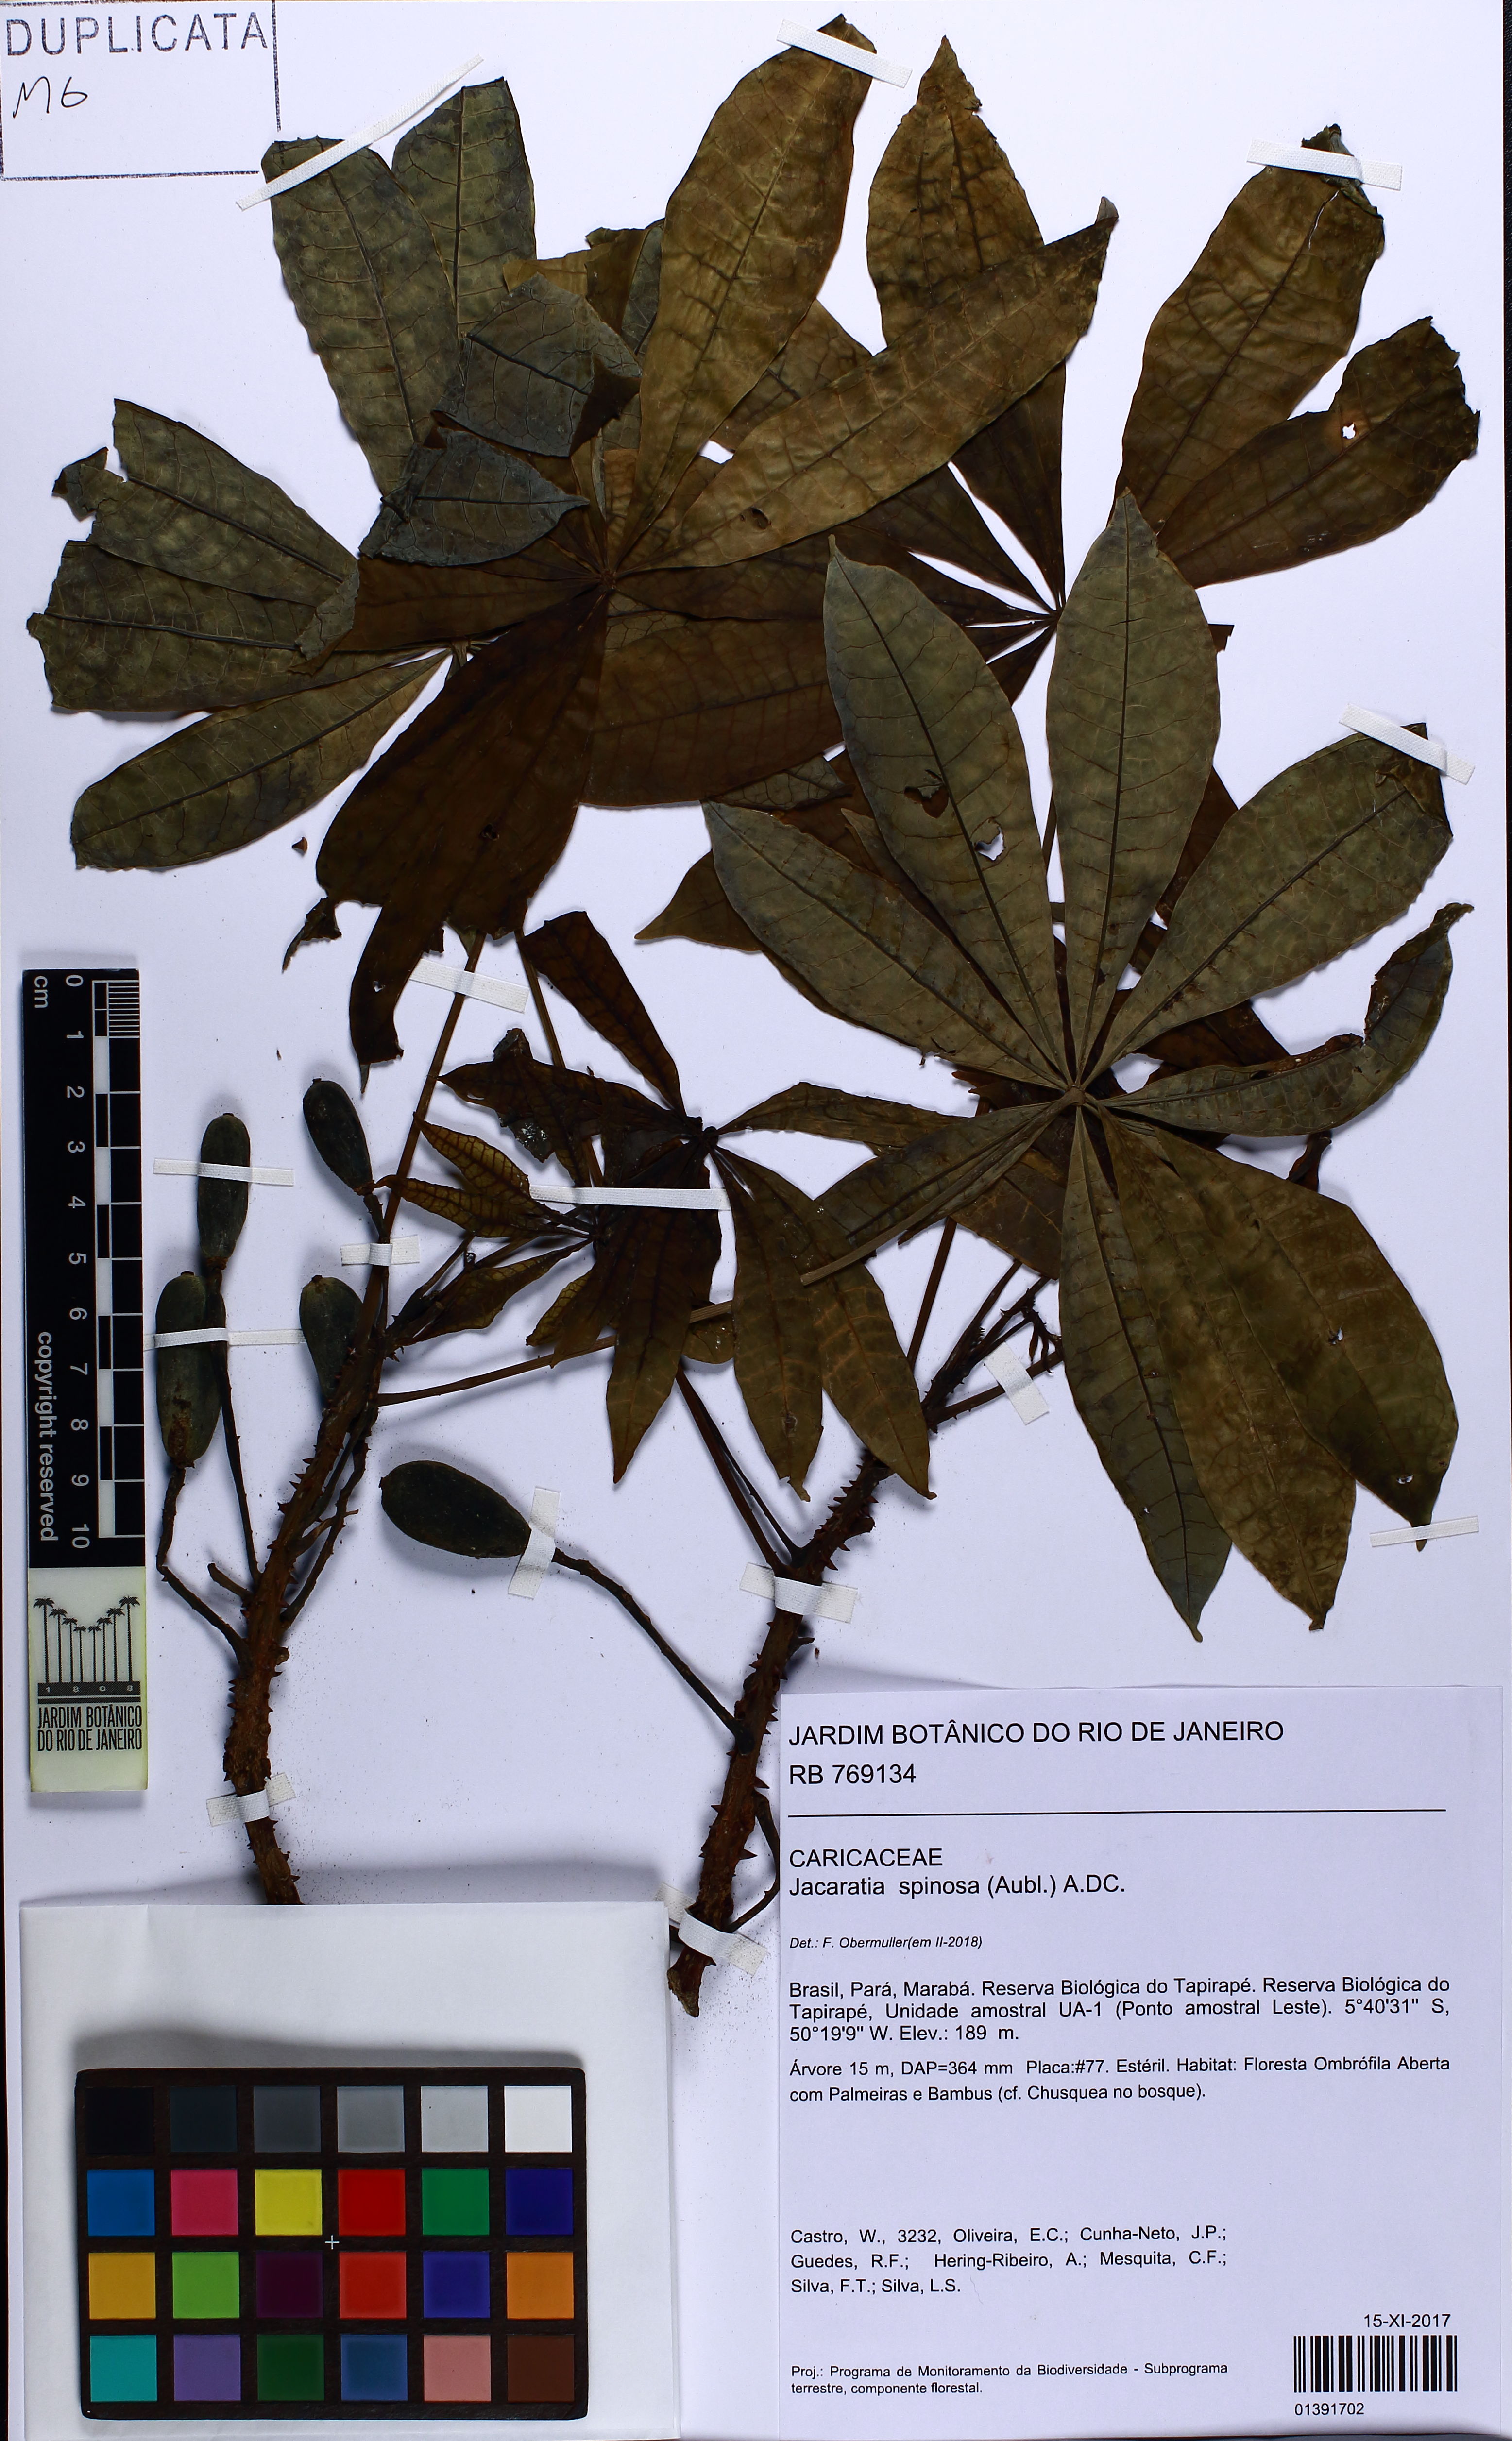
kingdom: Plantae
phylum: Tracheophyta
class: Magnoliopsida
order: Brassicales
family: Caricaceae
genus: Jacaratia
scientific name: Jacaratia spinosa
